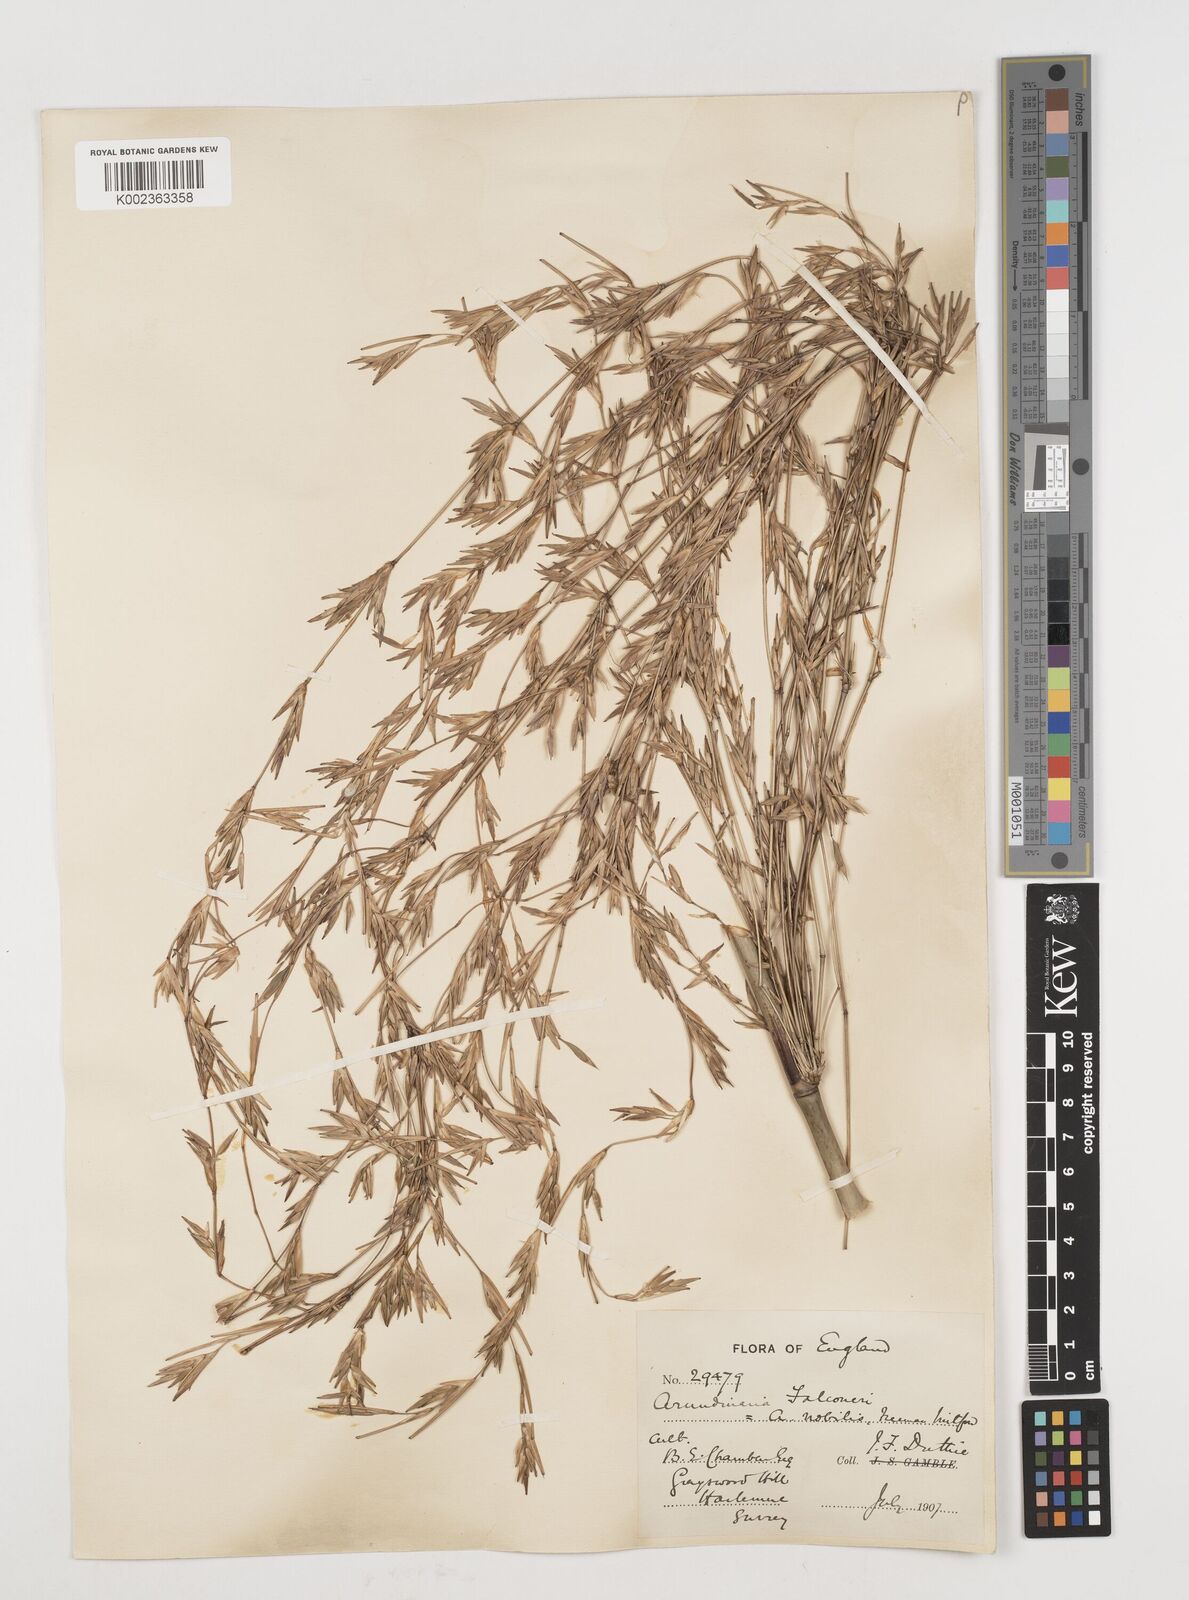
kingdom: Plantae
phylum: Tracheophyta
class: Liliopsida
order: Poales
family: Poaceae
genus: Himalayacalamus
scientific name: Himalayacalamus falconeri
